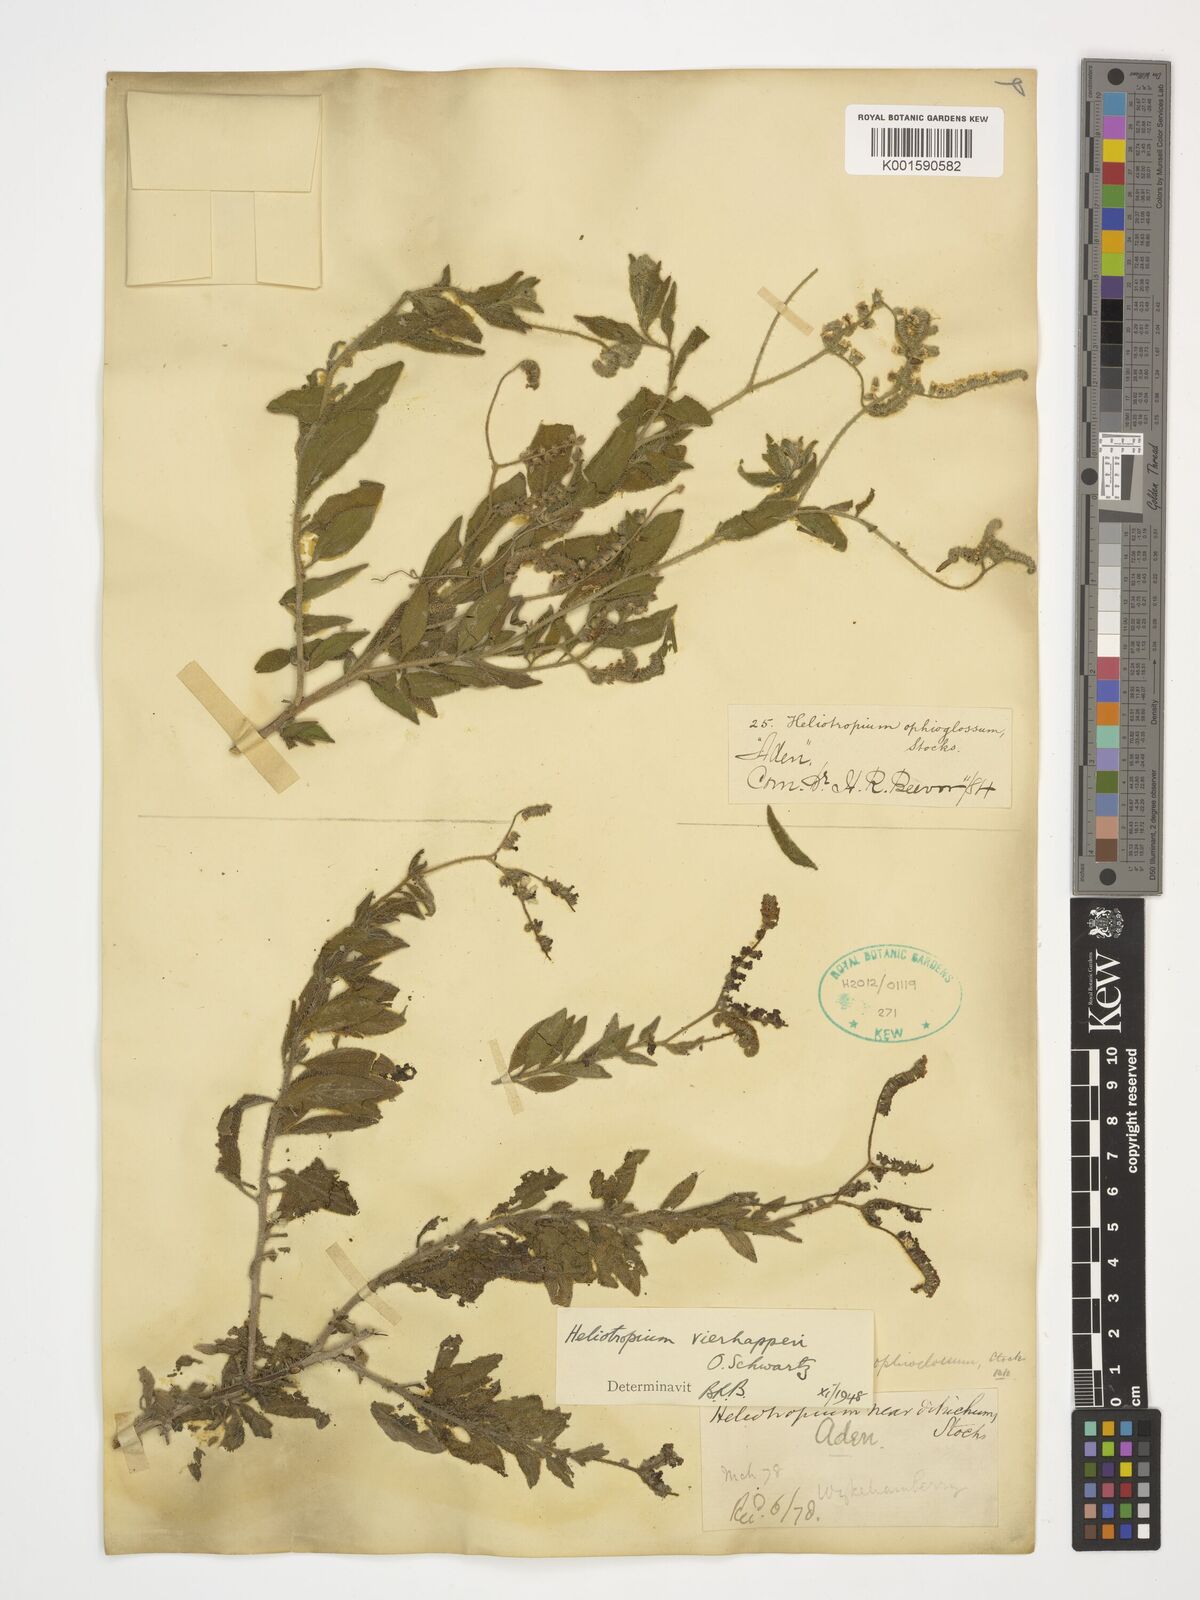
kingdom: Plantae
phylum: Tracheophyta
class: Magnoliopsida
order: Boraginales
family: Heliotropiaceae
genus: Heliotropium
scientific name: Heliotropium ophioglossum
